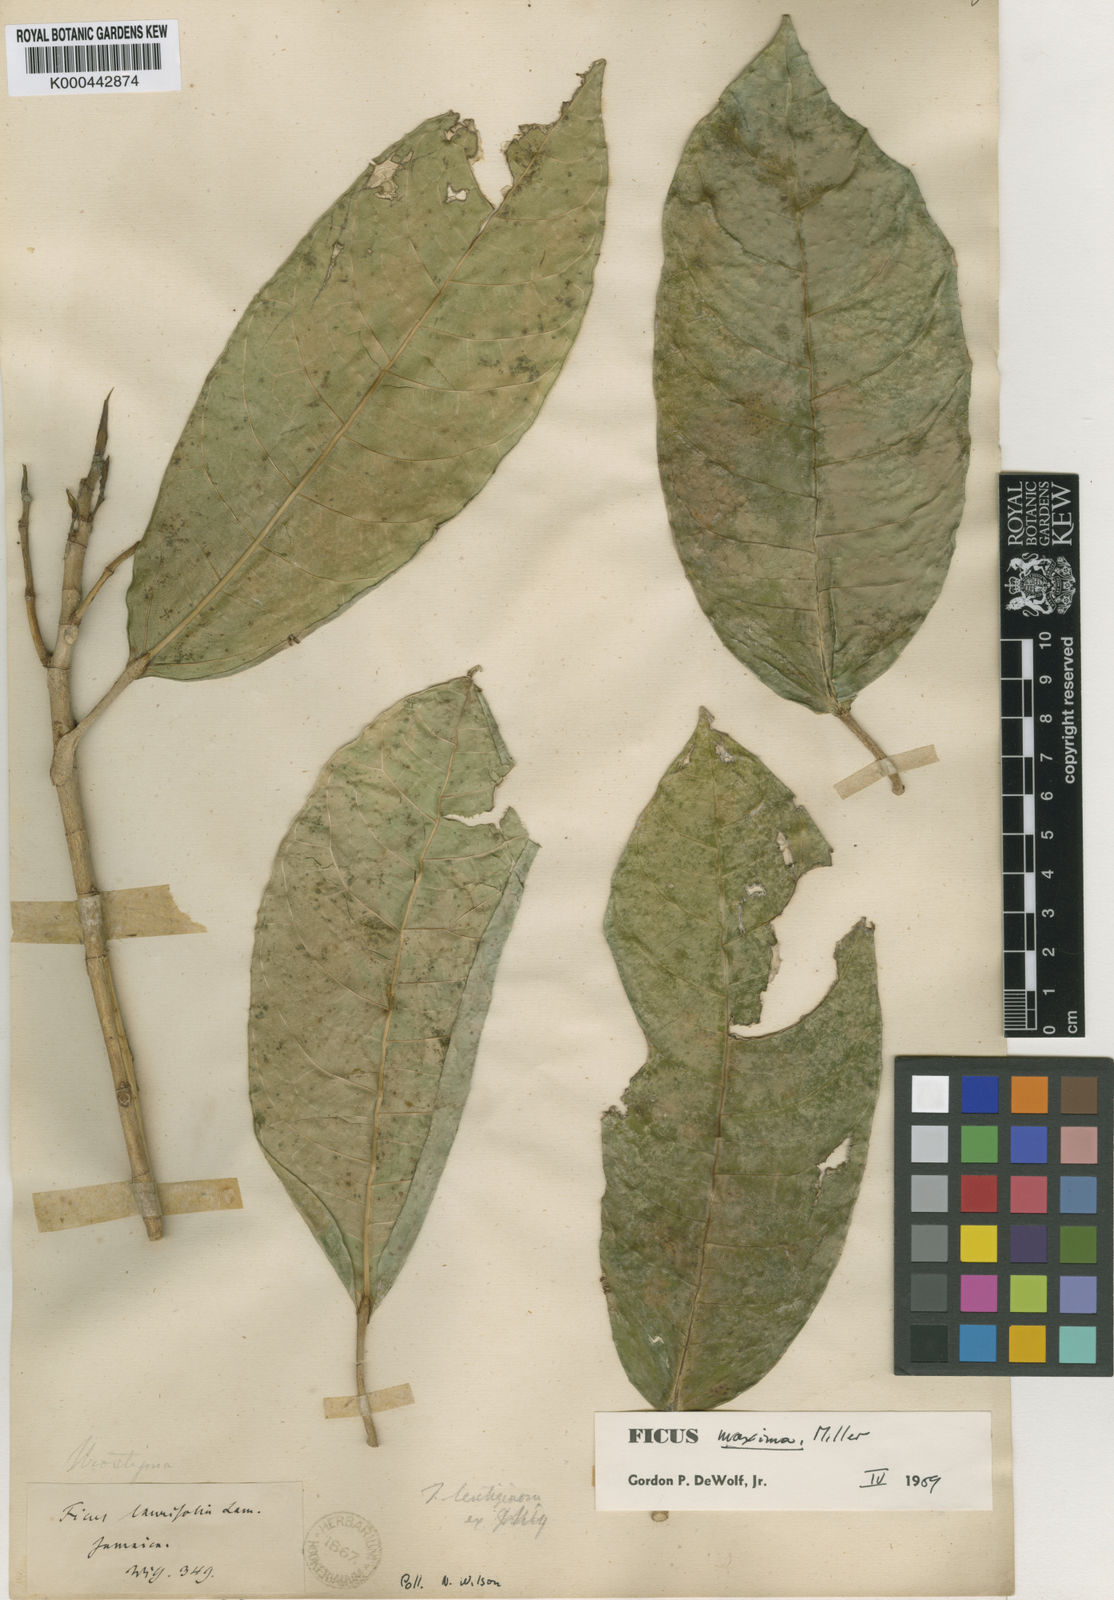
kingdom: Plantae
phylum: Tracheophyta
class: Magnoliopsida
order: Rosales
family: Moraceae
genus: Ficus
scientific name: Ficus maxima
